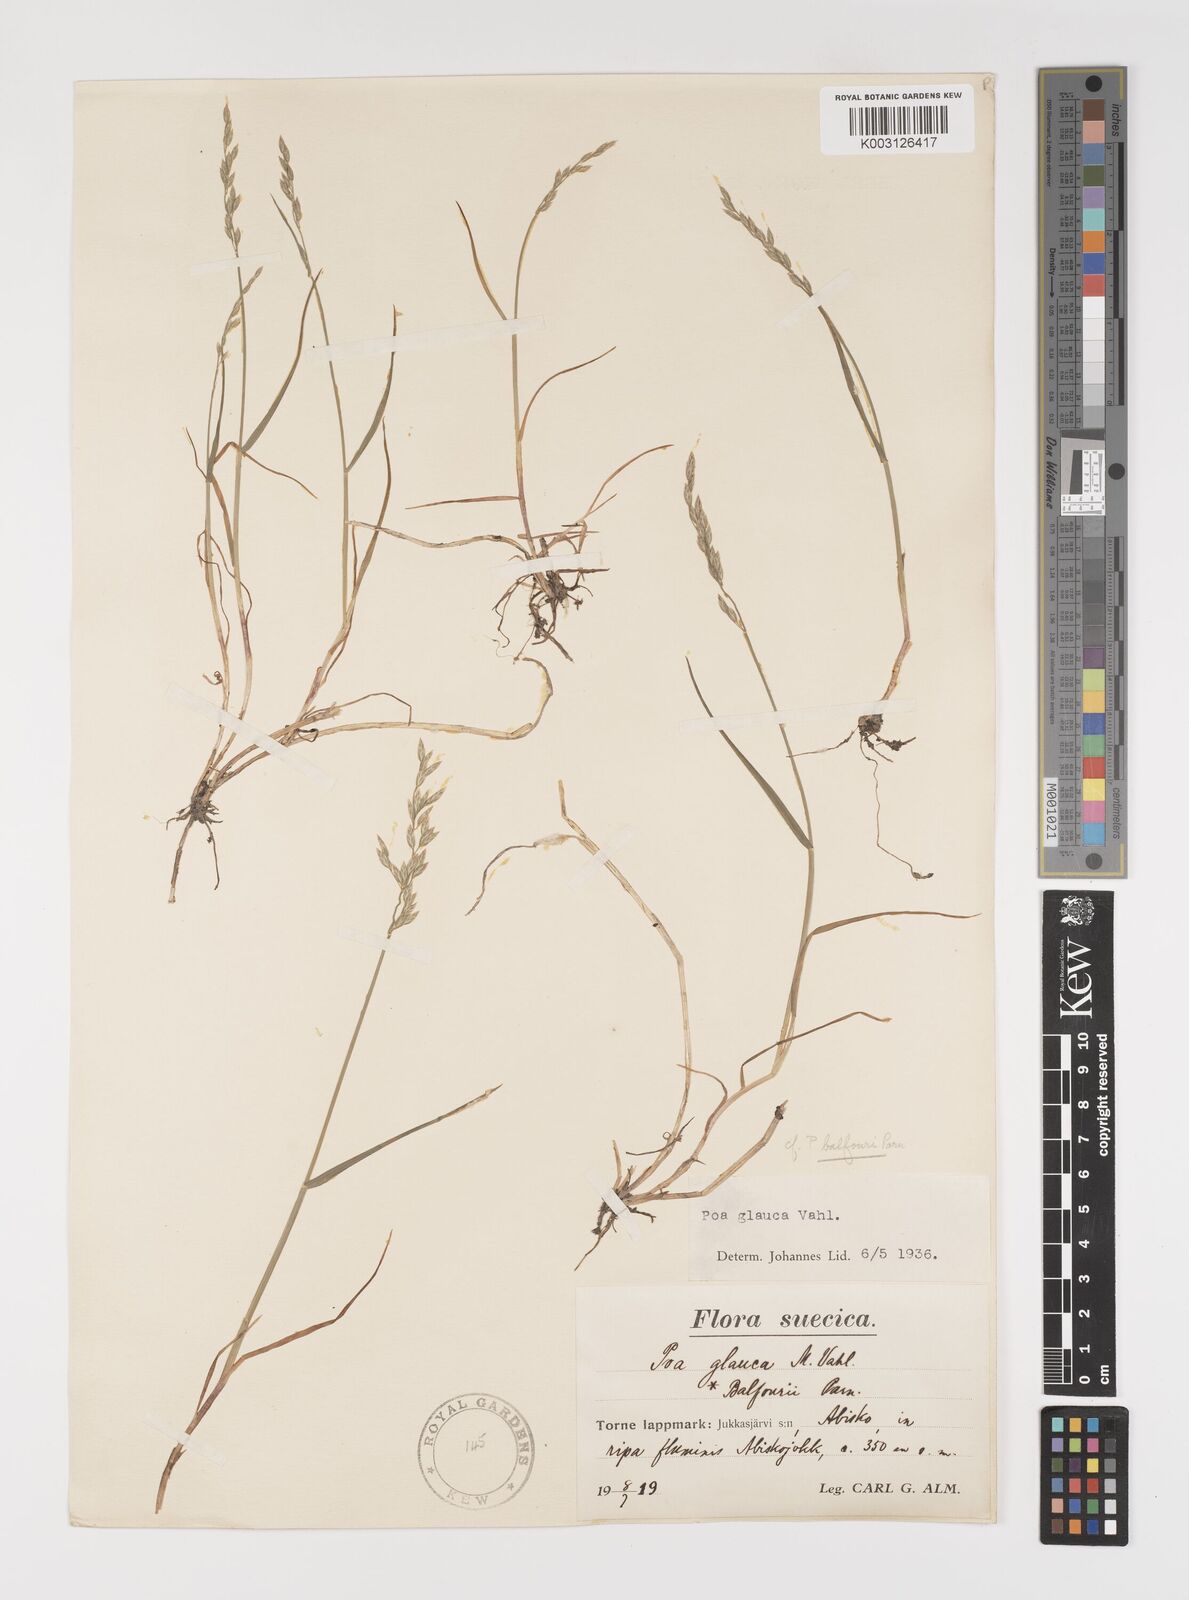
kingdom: Plantae
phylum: Tracheophyta
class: Liliopsida
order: Poales
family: Poaceae
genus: Poa
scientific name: Poa nemoralis
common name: Wood bluegrass
